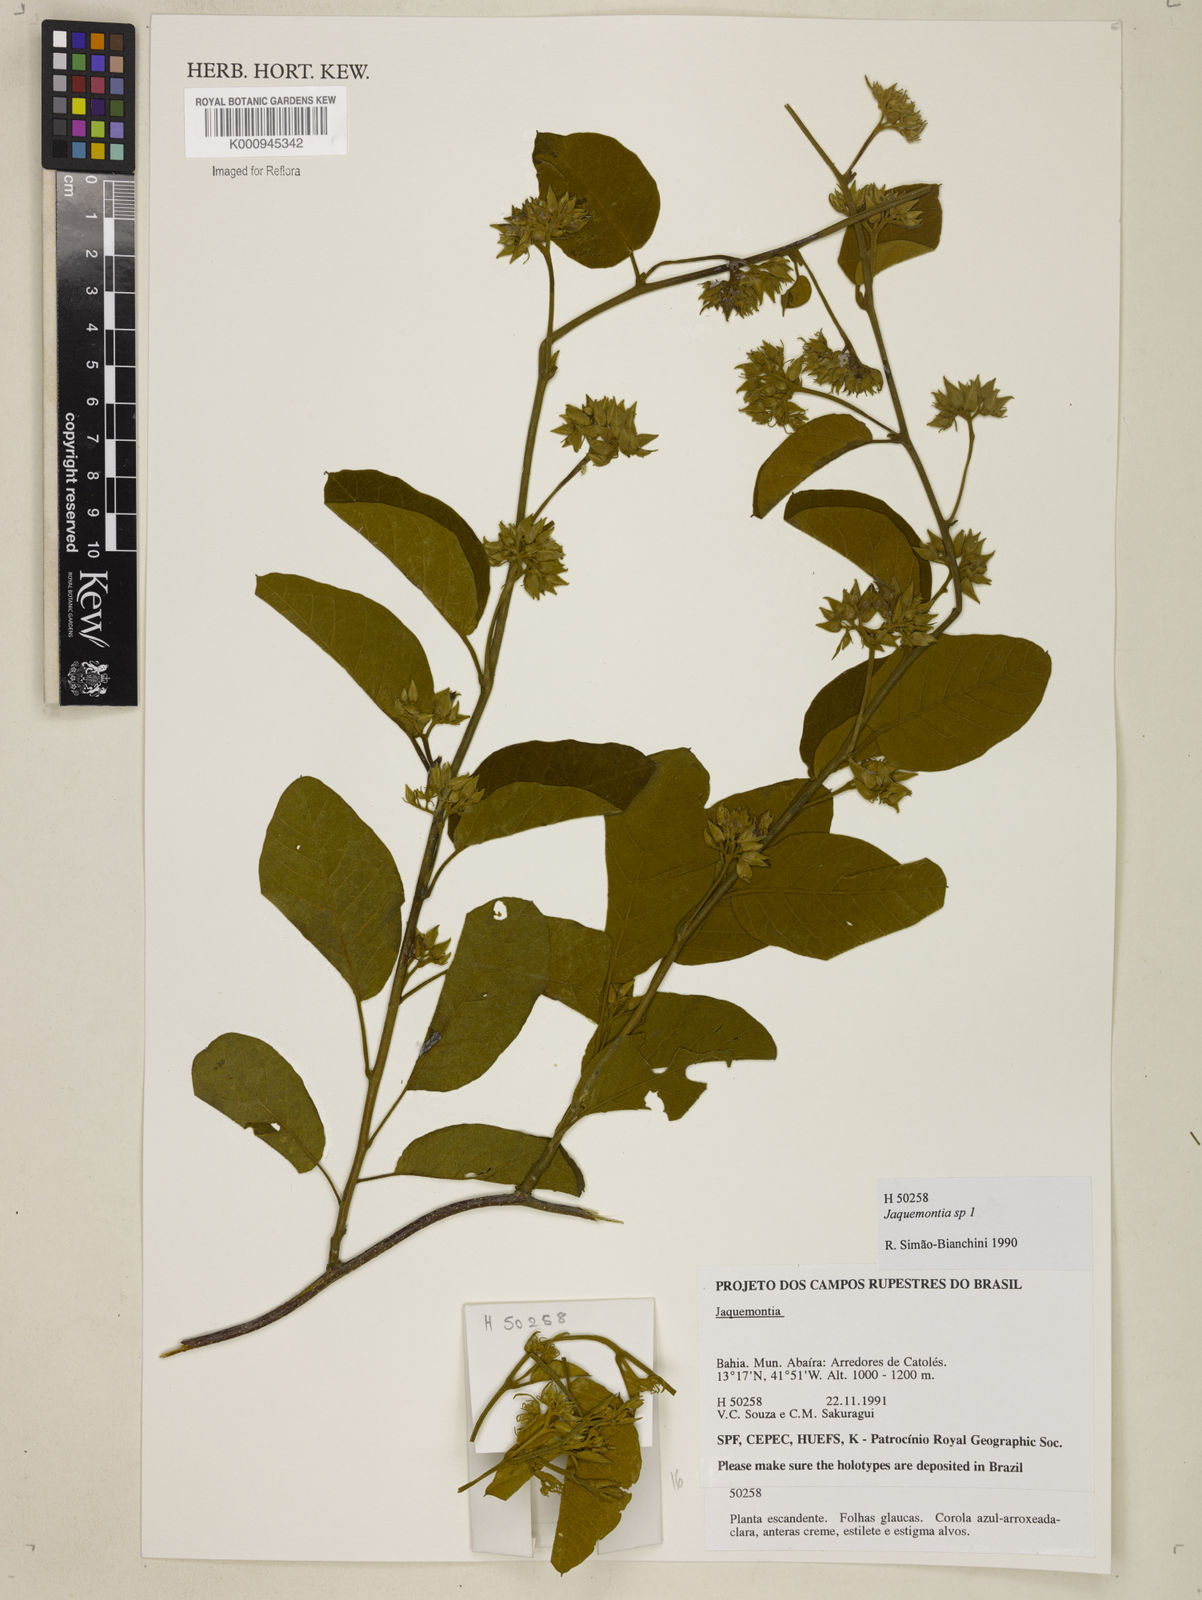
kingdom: Plantae
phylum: Tracheophyta
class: Magnoliopsida
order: Solanales
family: Convolvulaceae
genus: Jacquemontia
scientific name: Jacquemontia
